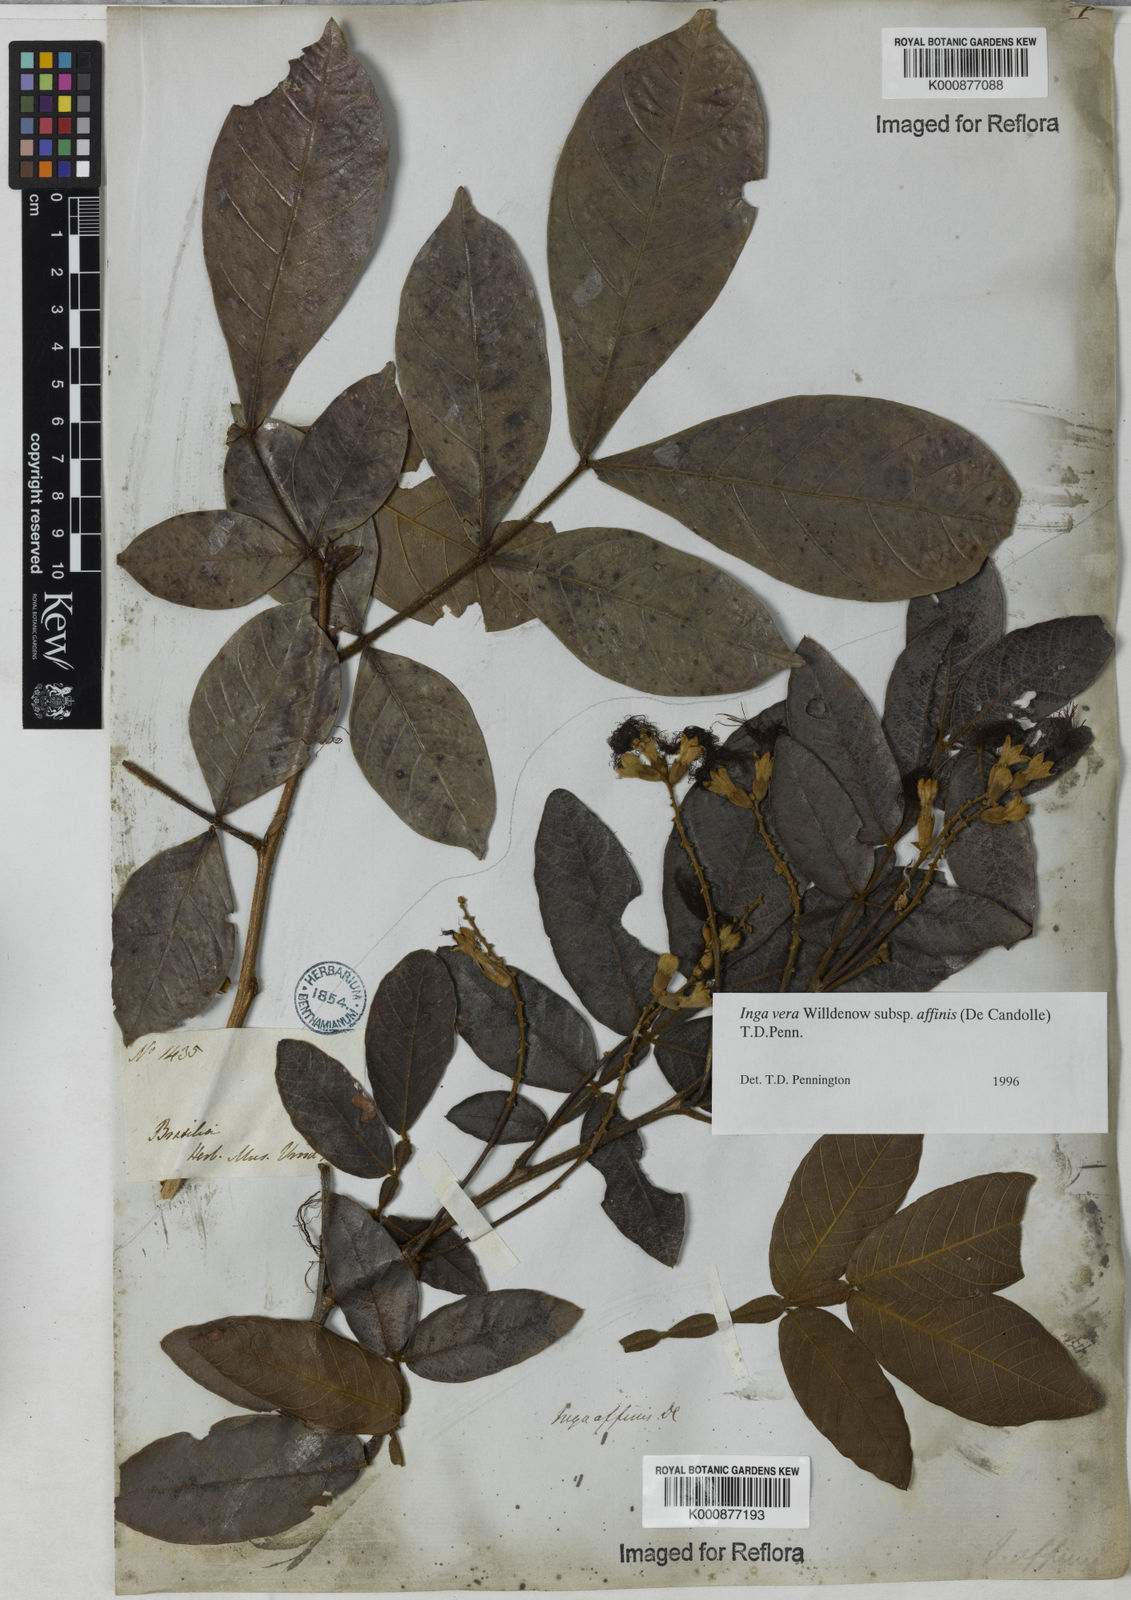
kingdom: Plantae
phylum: Tracheophyta
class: Magnoliopsida
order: Fabales
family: Fabaceae
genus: Inga
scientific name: Inga affinis
